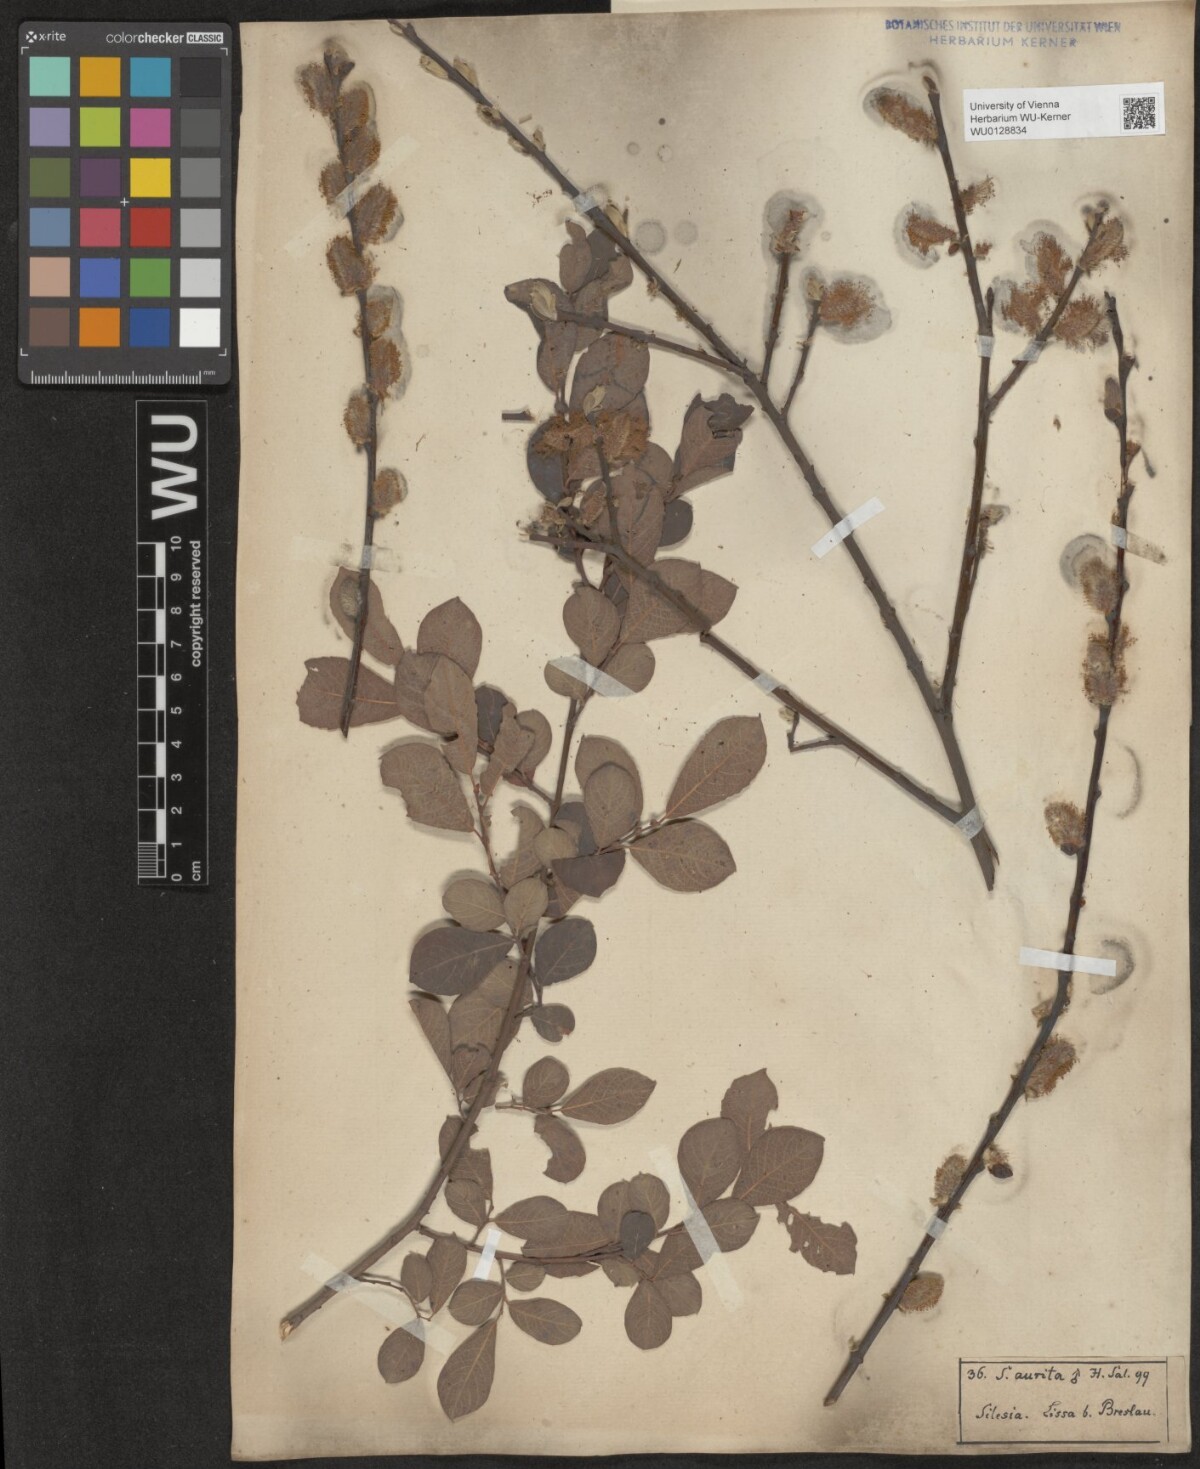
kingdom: Plantae
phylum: Tracheophyta
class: Magnoliopsida
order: Malpighiales
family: Salicaceae
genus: Salix
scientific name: Salix aurita
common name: Eared willow
